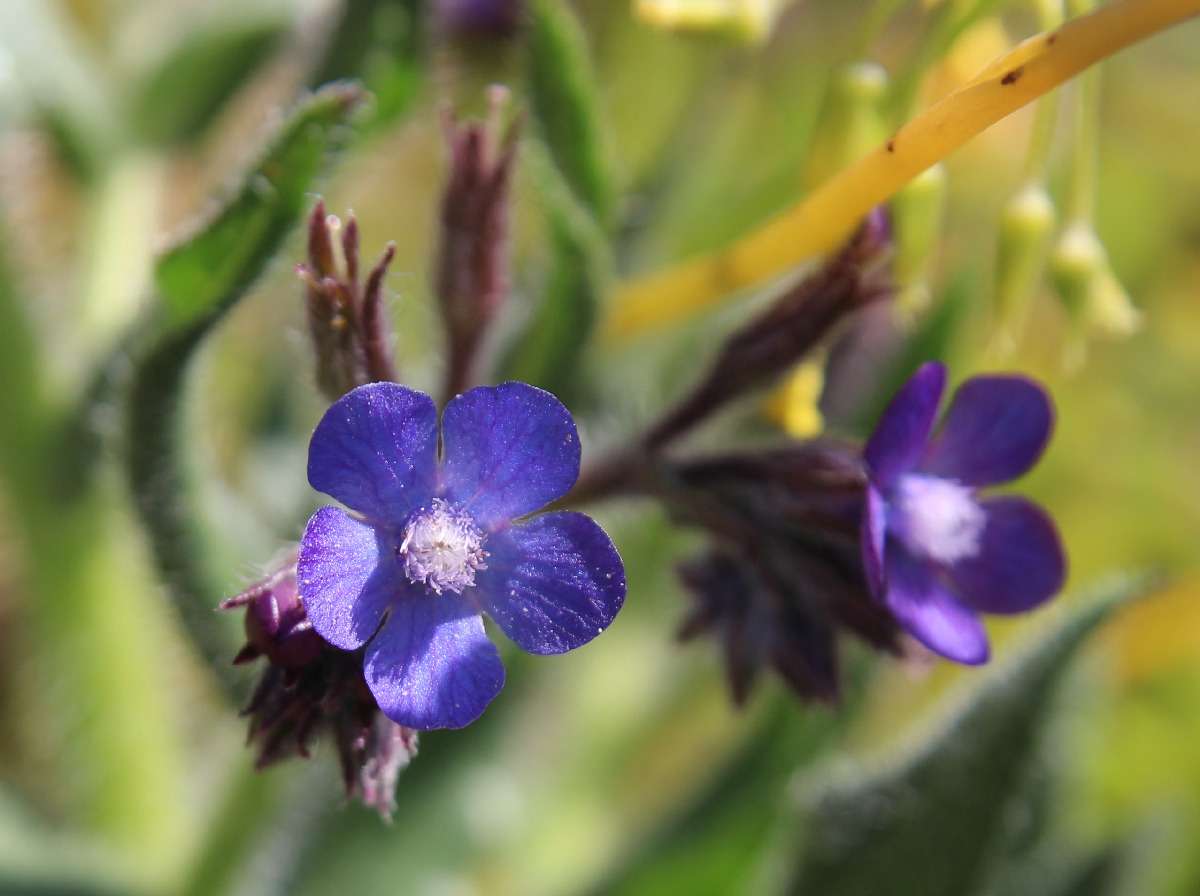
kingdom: Plantae
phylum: Tracheophyta
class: Magnoliopsida
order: Boraginales
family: Boraginaceae
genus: Anchusa
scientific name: Anchusa hybrida
